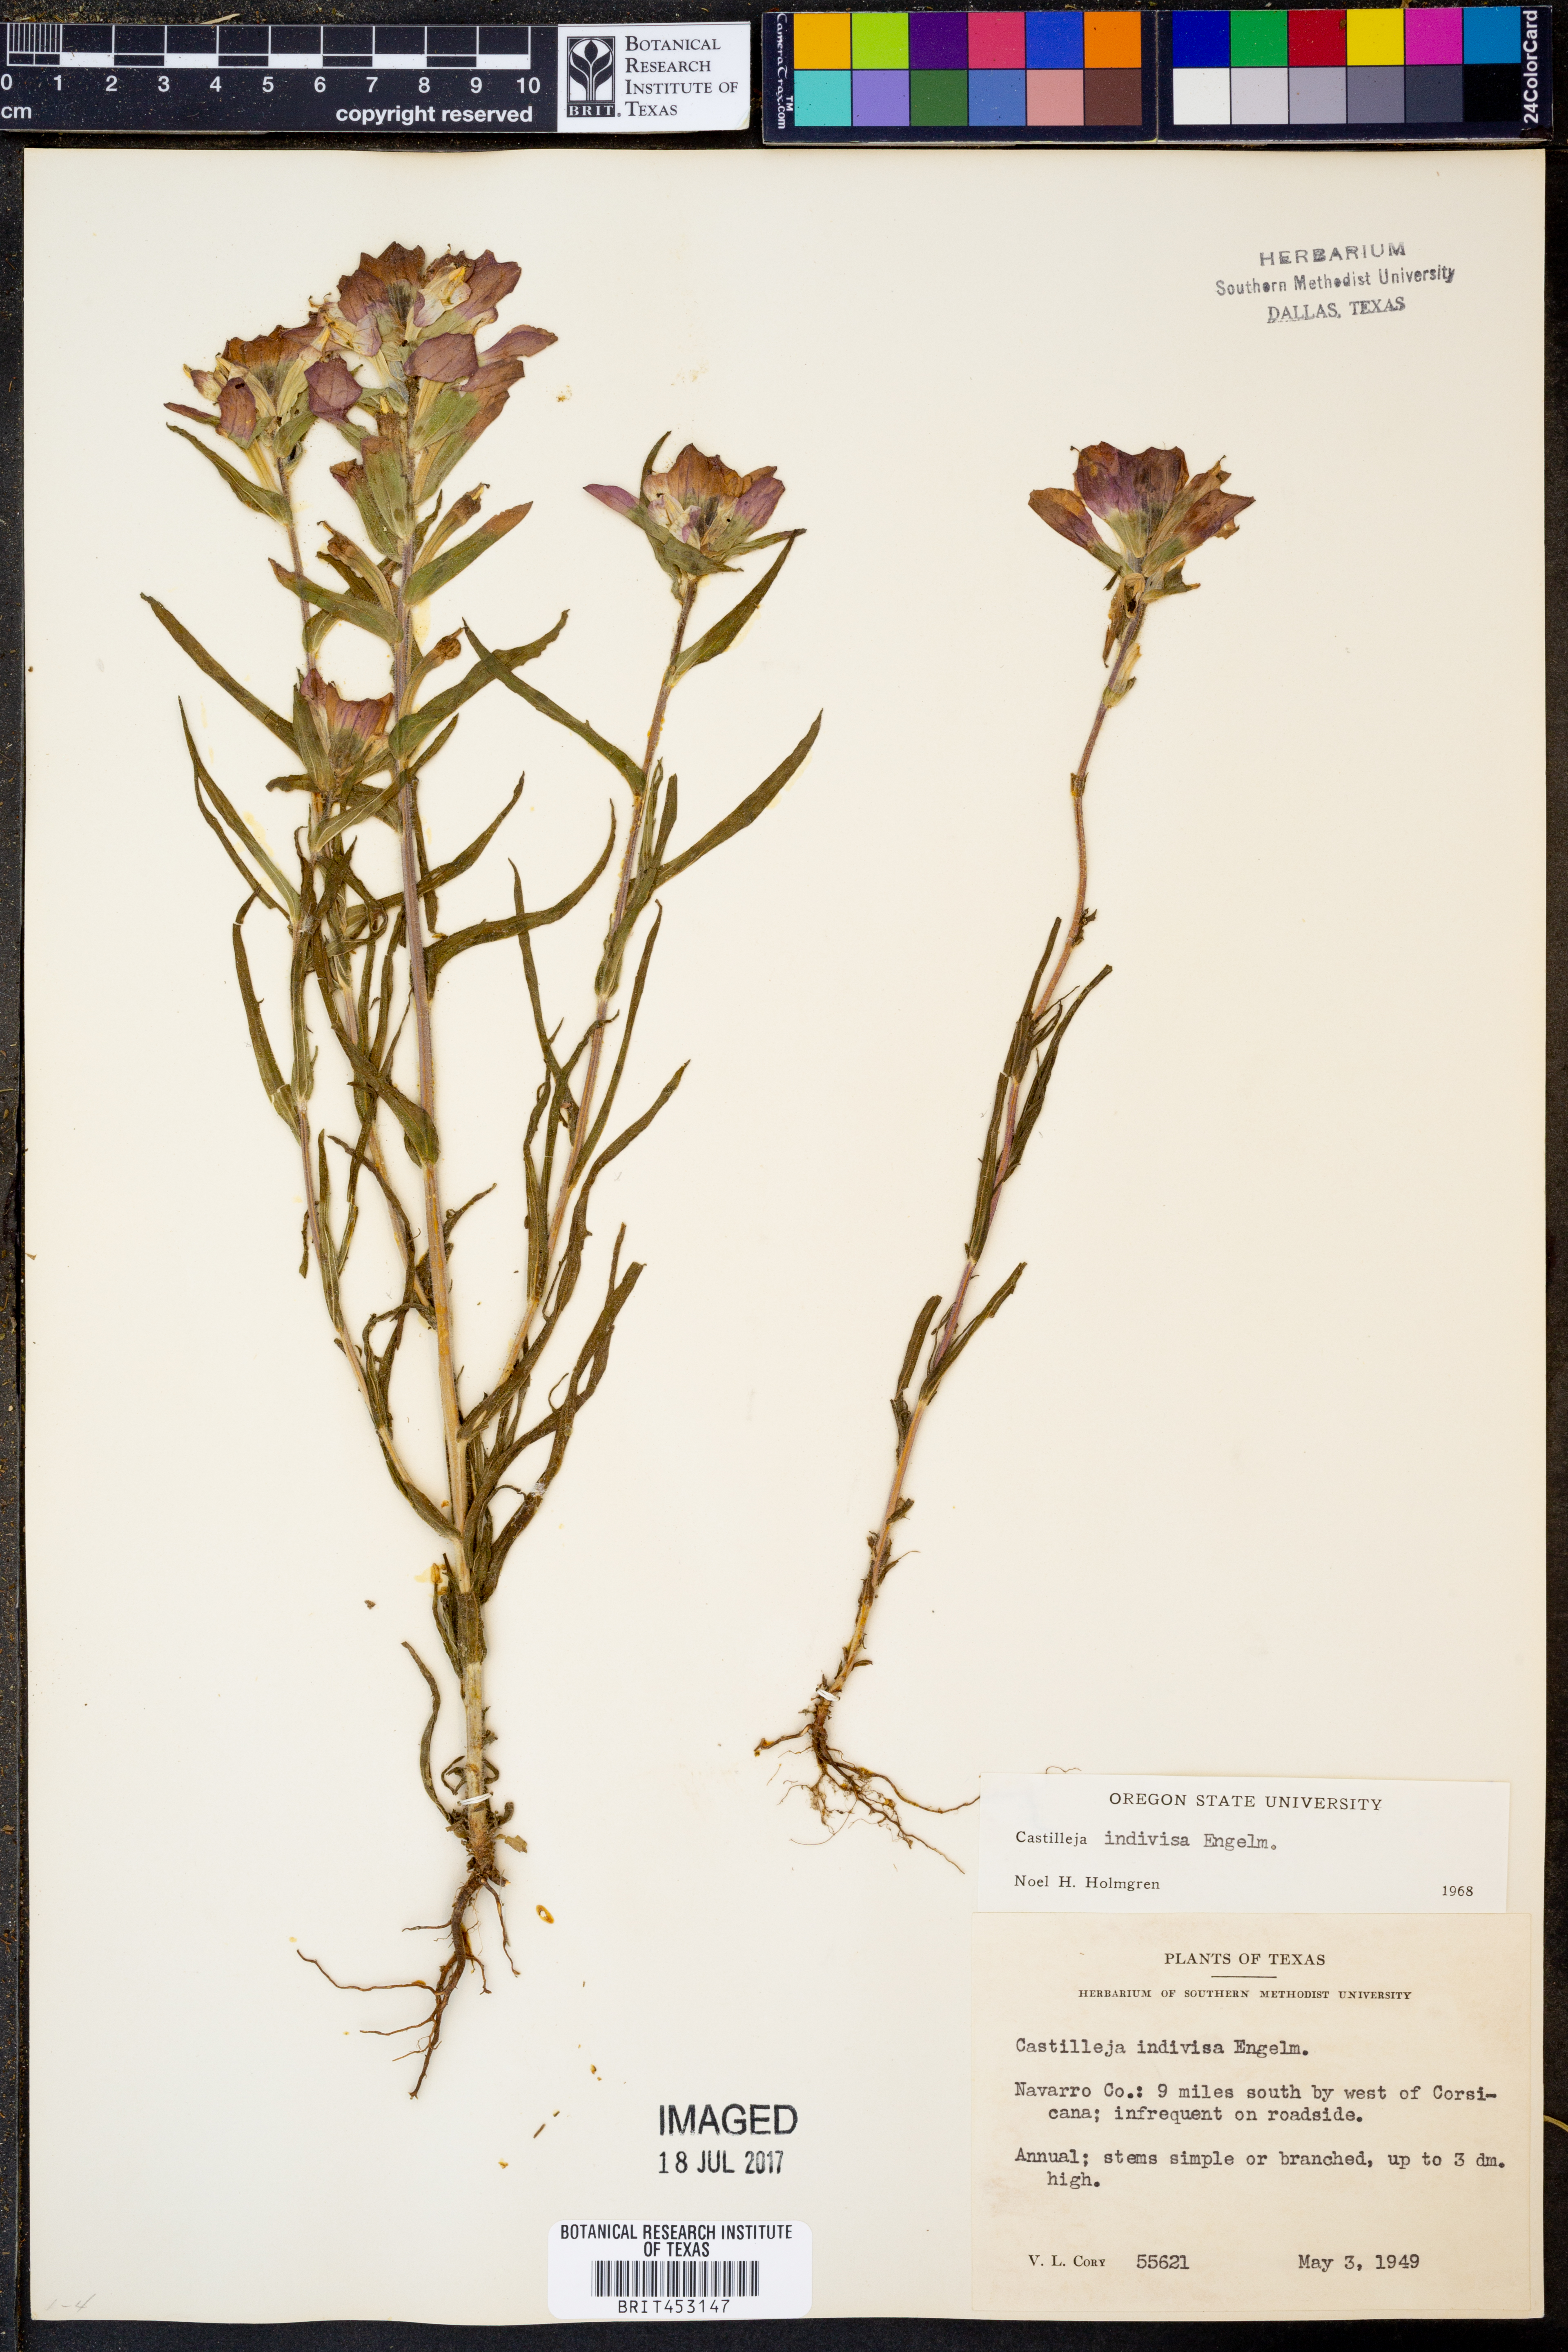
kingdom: Plantae
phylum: Tracheophyta
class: Magnoliopsida
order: Lamiales
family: Orobanchaceae
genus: Castilleja
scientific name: Castilleja indivisa
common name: Texas paintbrush
